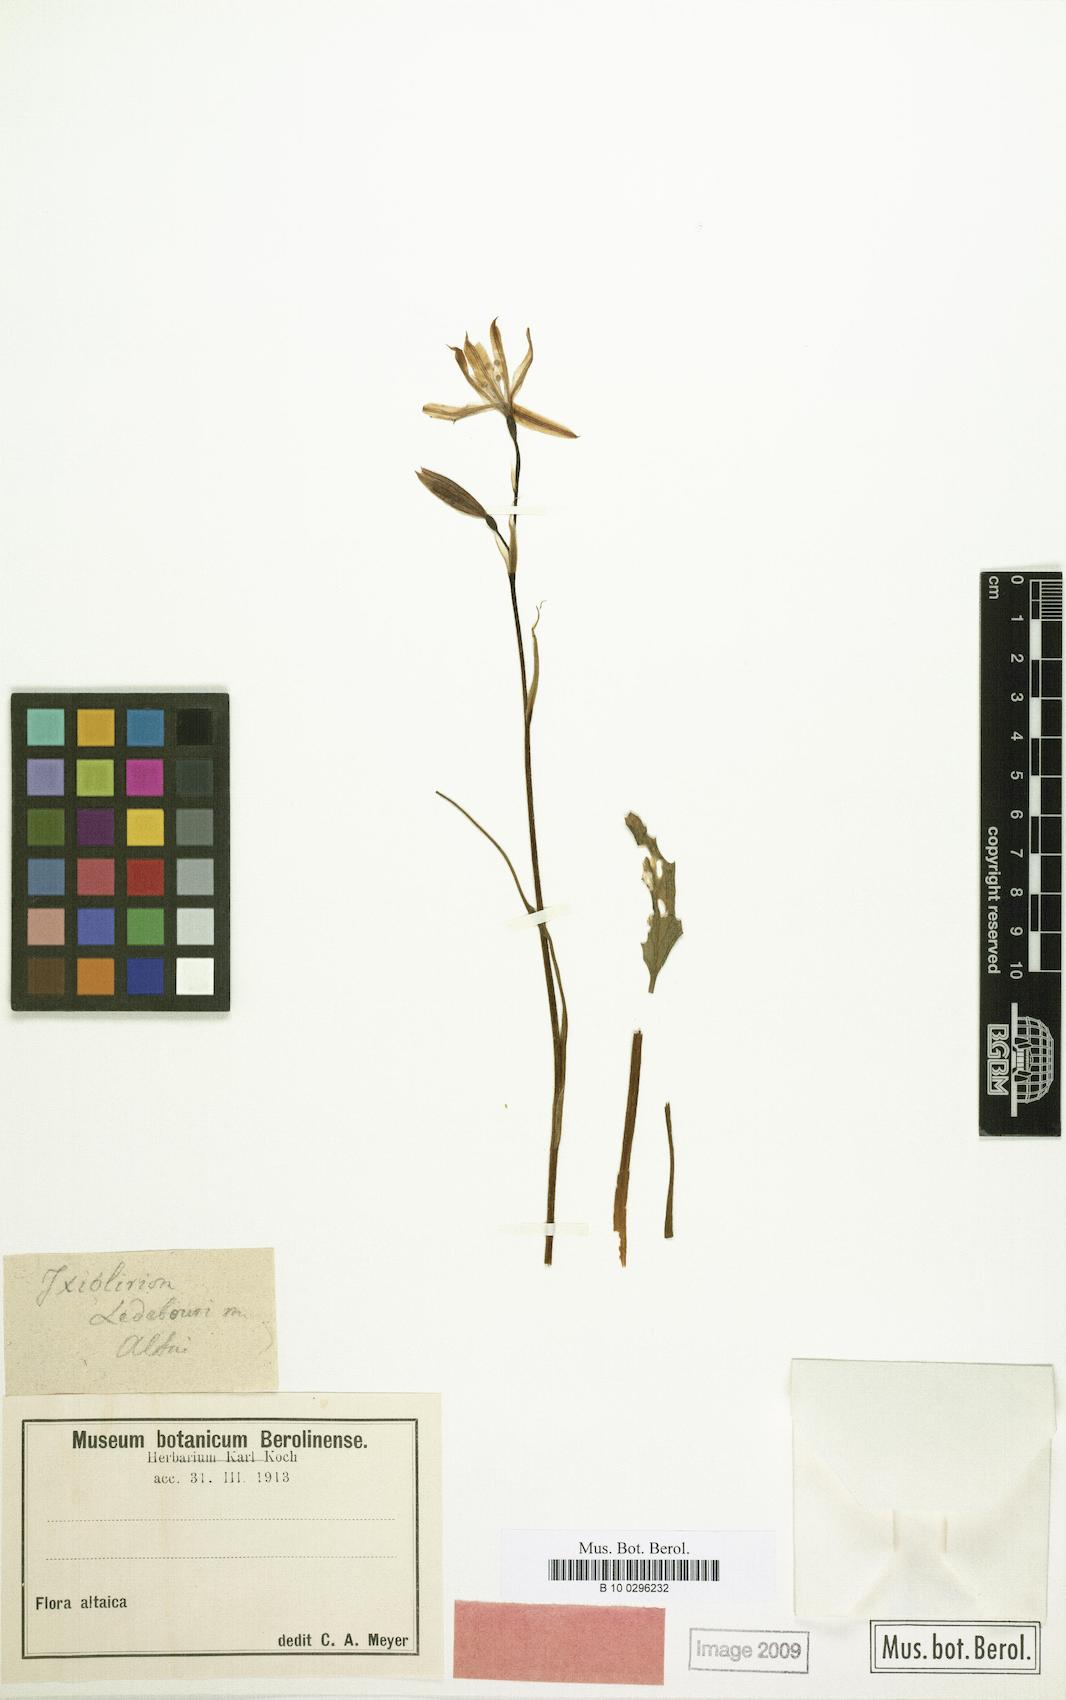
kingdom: Plantae
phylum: Tracheophyta
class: Liliopsida
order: Asparagales
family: Ixioliriaceae
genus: Ixiolirion
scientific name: Ixiolirion tataricum
